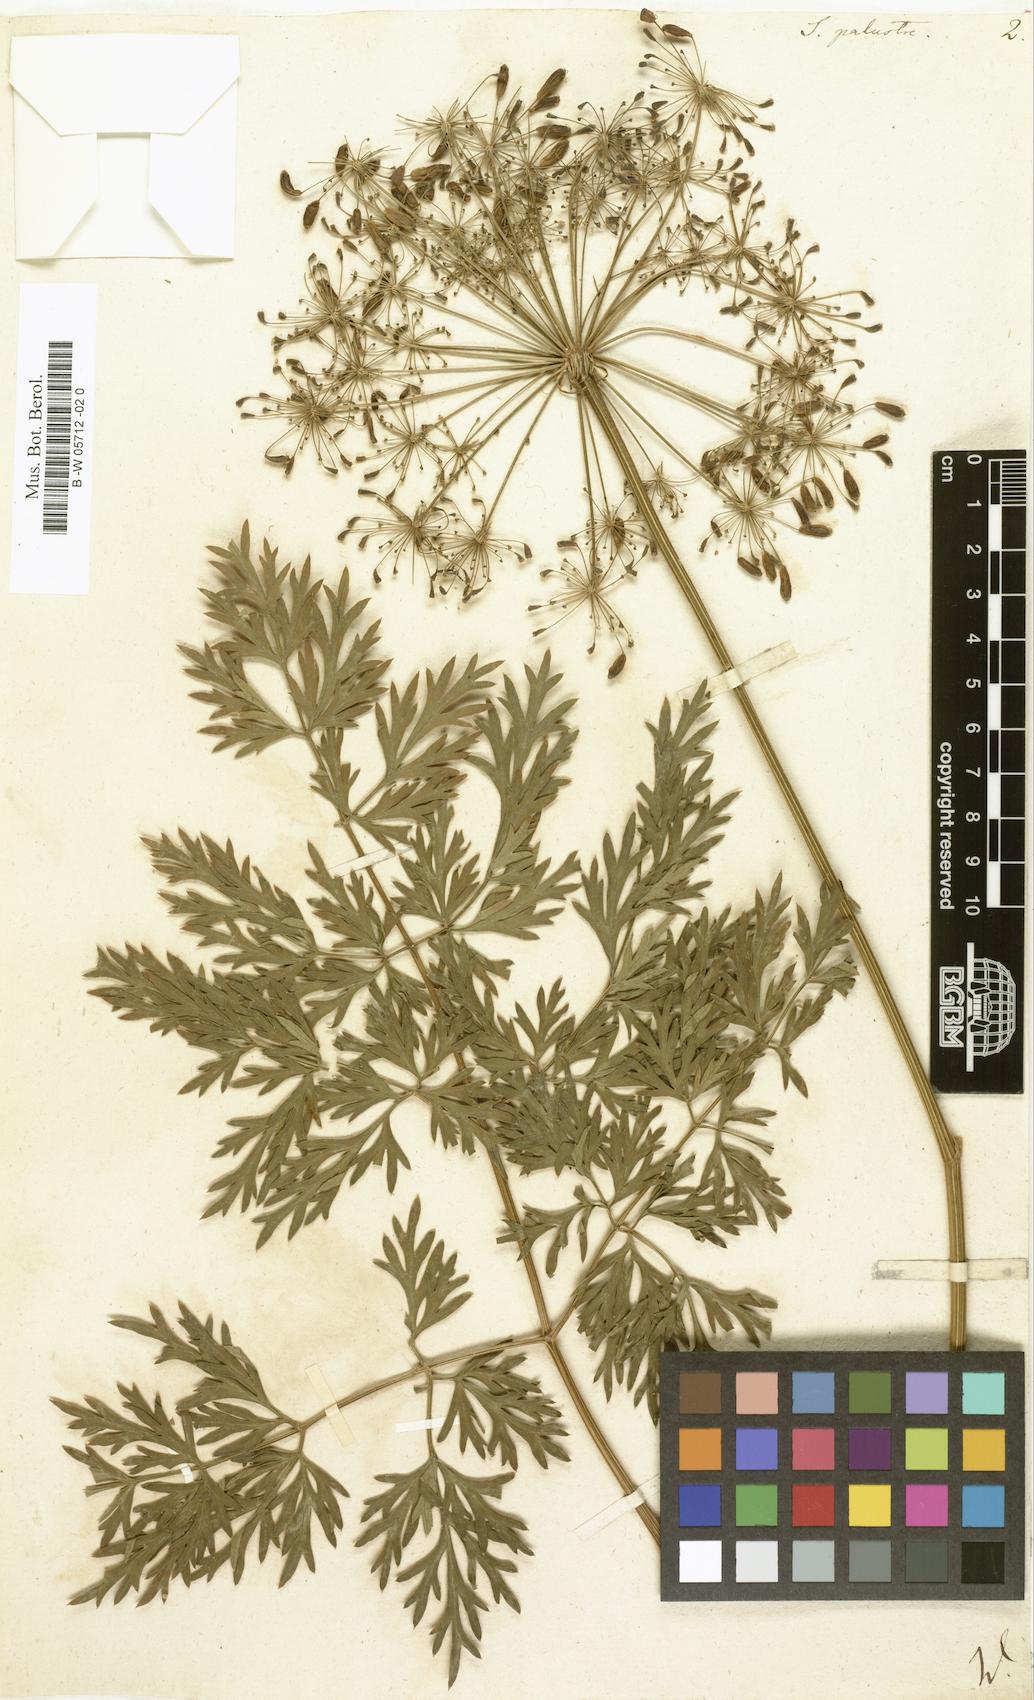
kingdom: Plantae
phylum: Tracheophyta
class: Magnoliopsida
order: Apiales
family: Apiaceae
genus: Selinum
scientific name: Selinum palustre
